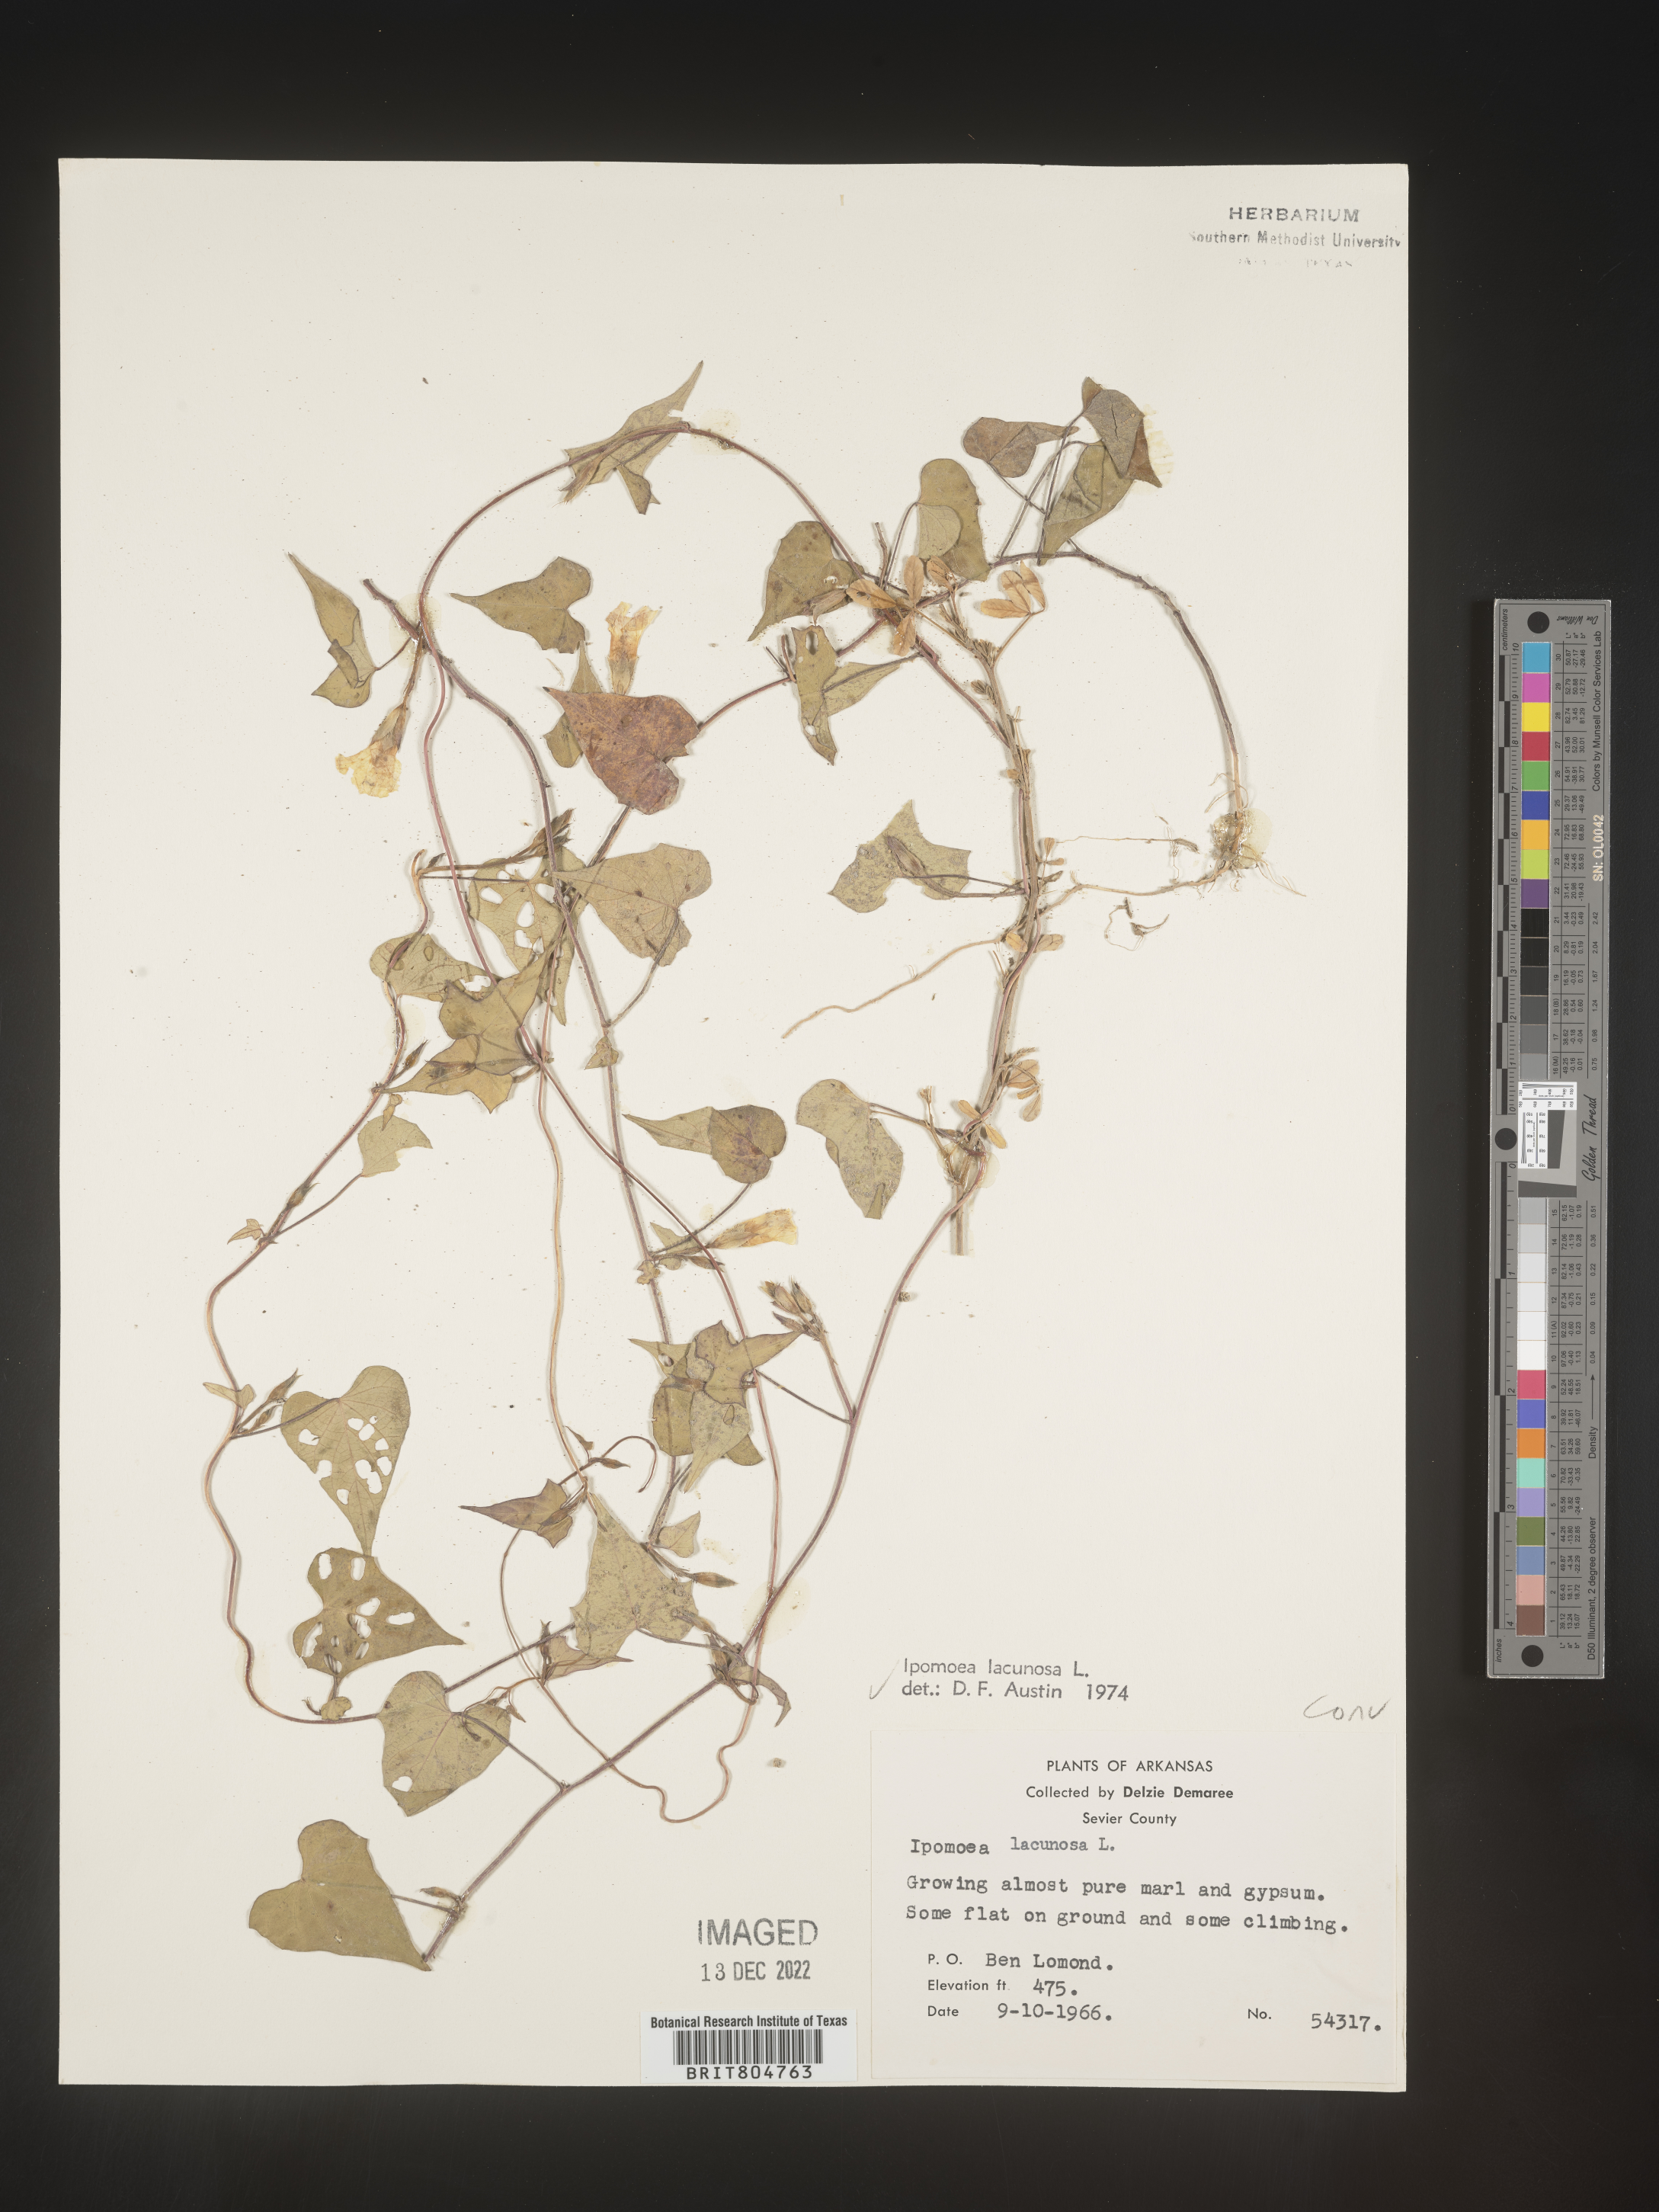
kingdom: Plantae
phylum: Tracheophyta
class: Magnoliopsida
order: Solanales
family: Convolvulaceae
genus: Ipomoea
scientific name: Ipomoea lacunosa
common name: White morning-glory
